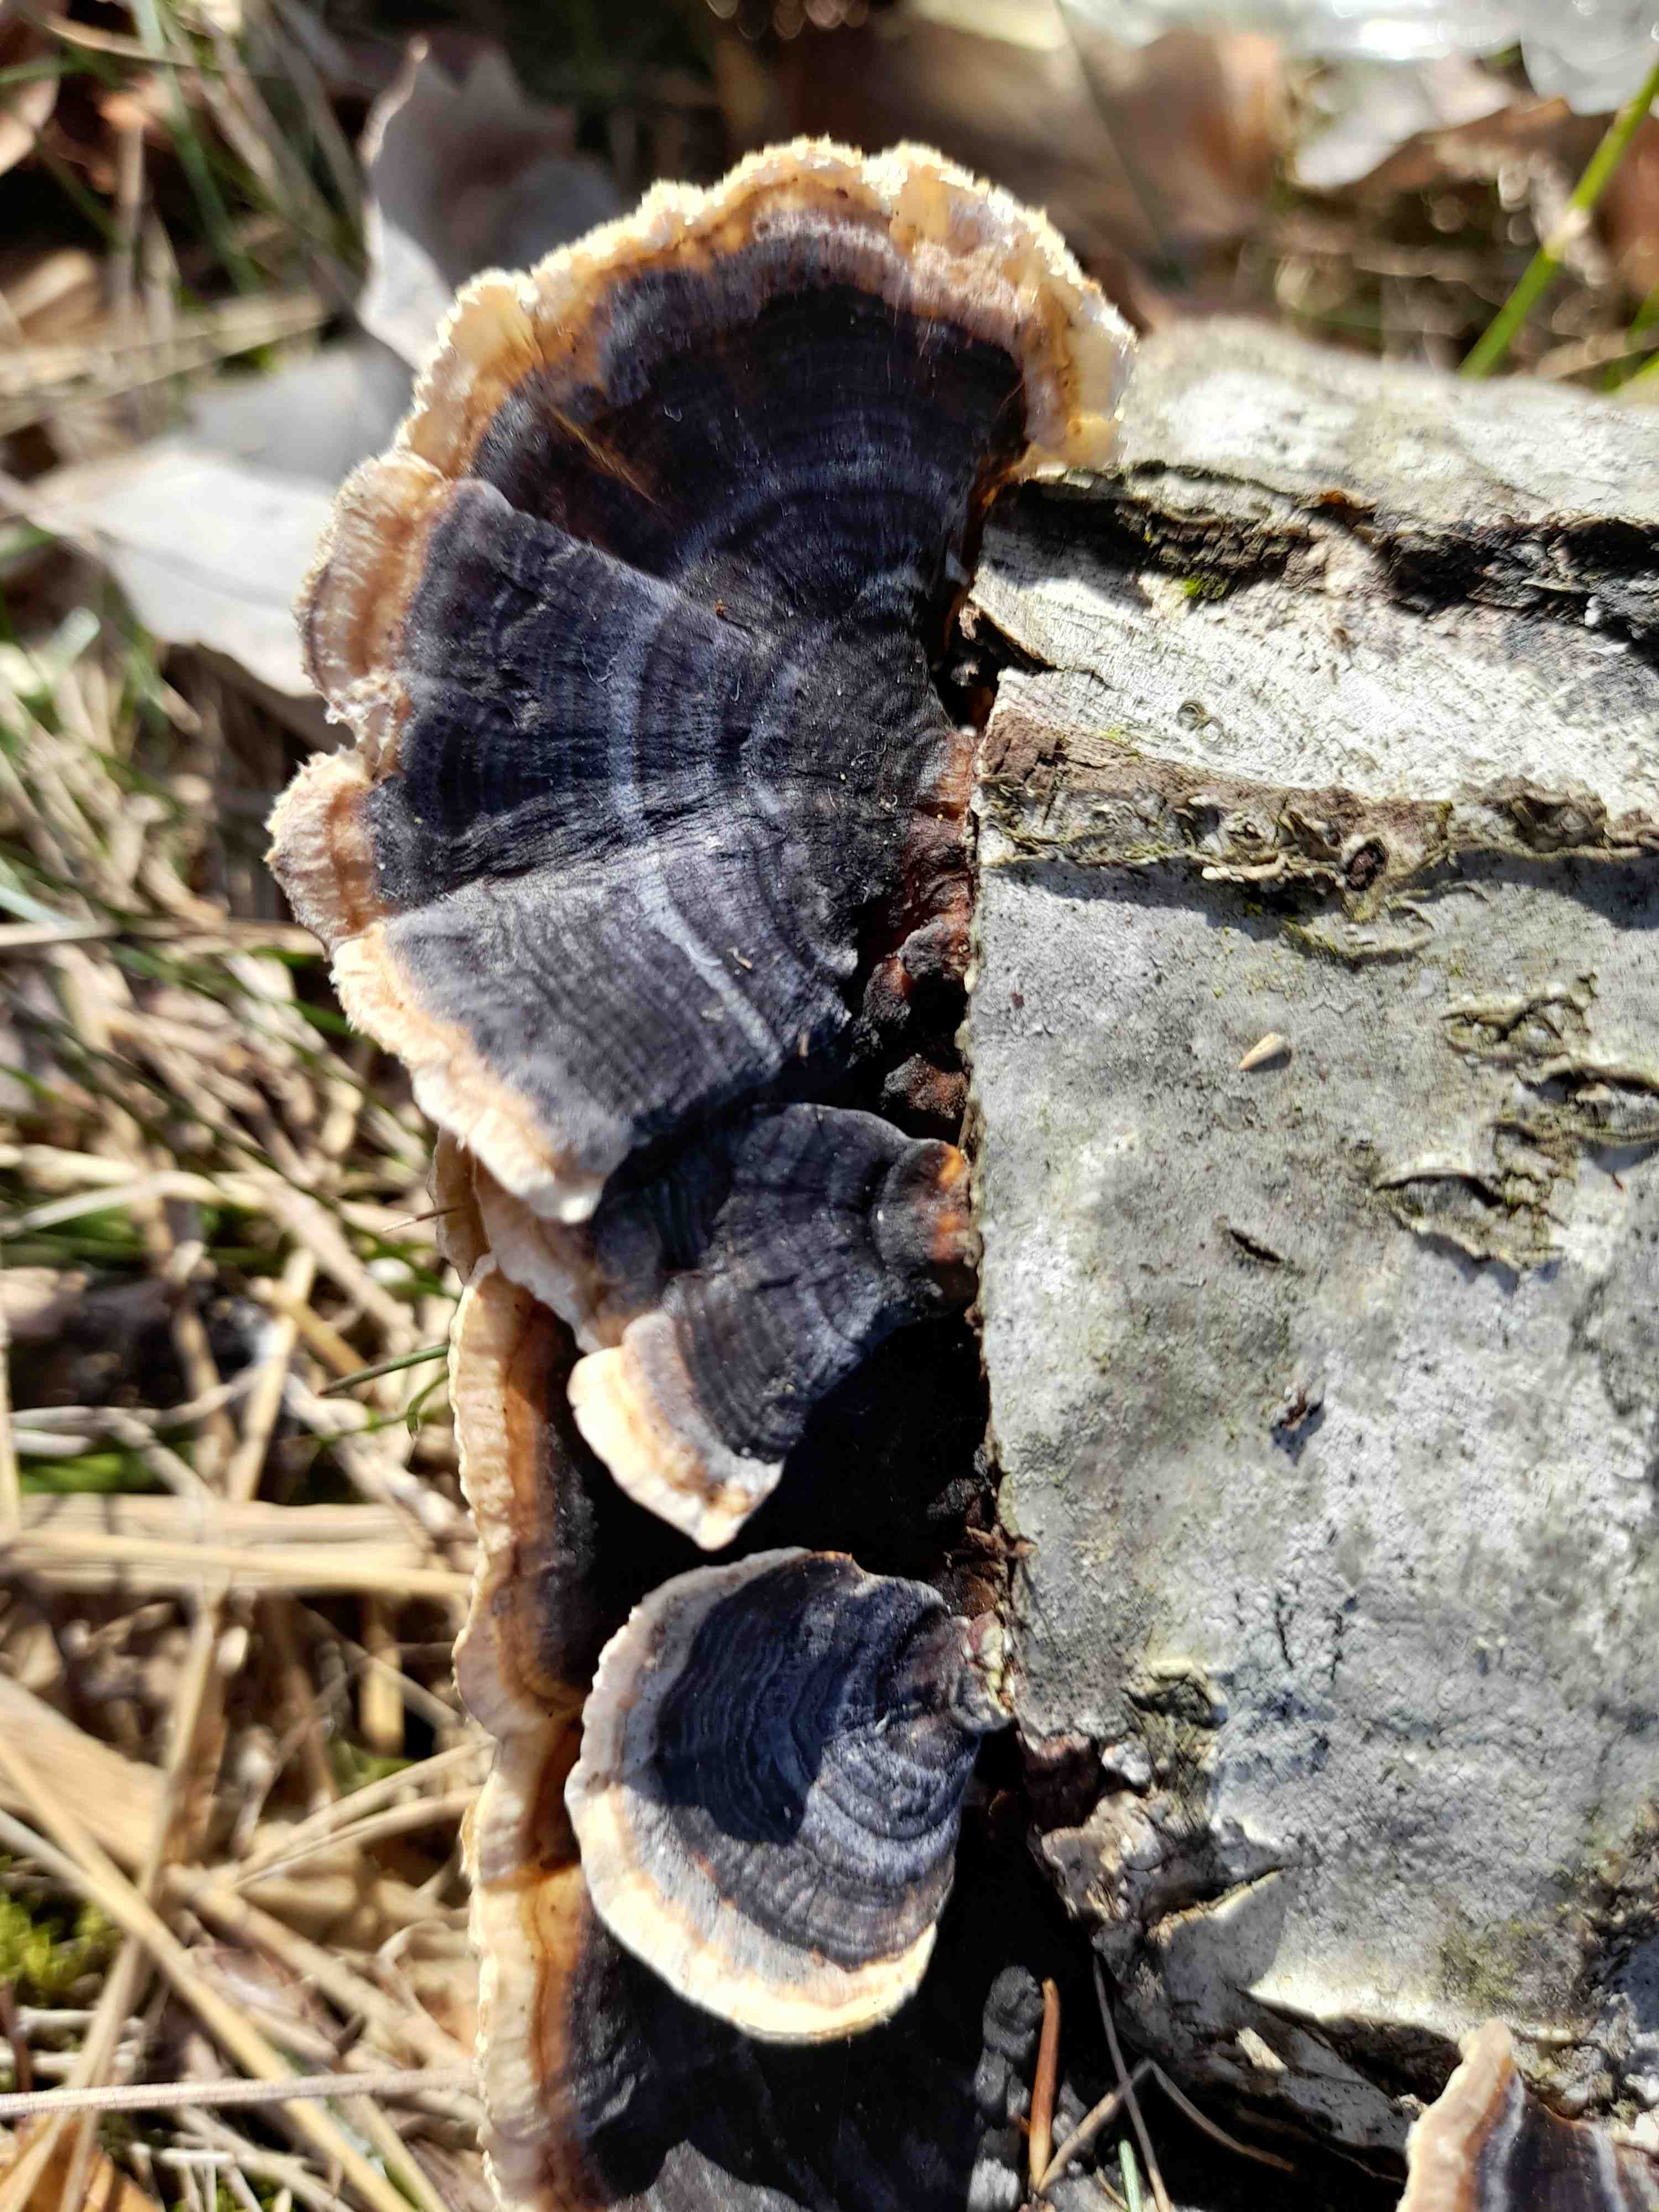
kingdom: Fungi
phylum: Basidiomycota
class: Agaricomycetes
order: Polyporales
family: Polyporaceae
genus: Trametes
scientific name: Trametes versicolor
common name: broget læderporesvamp
